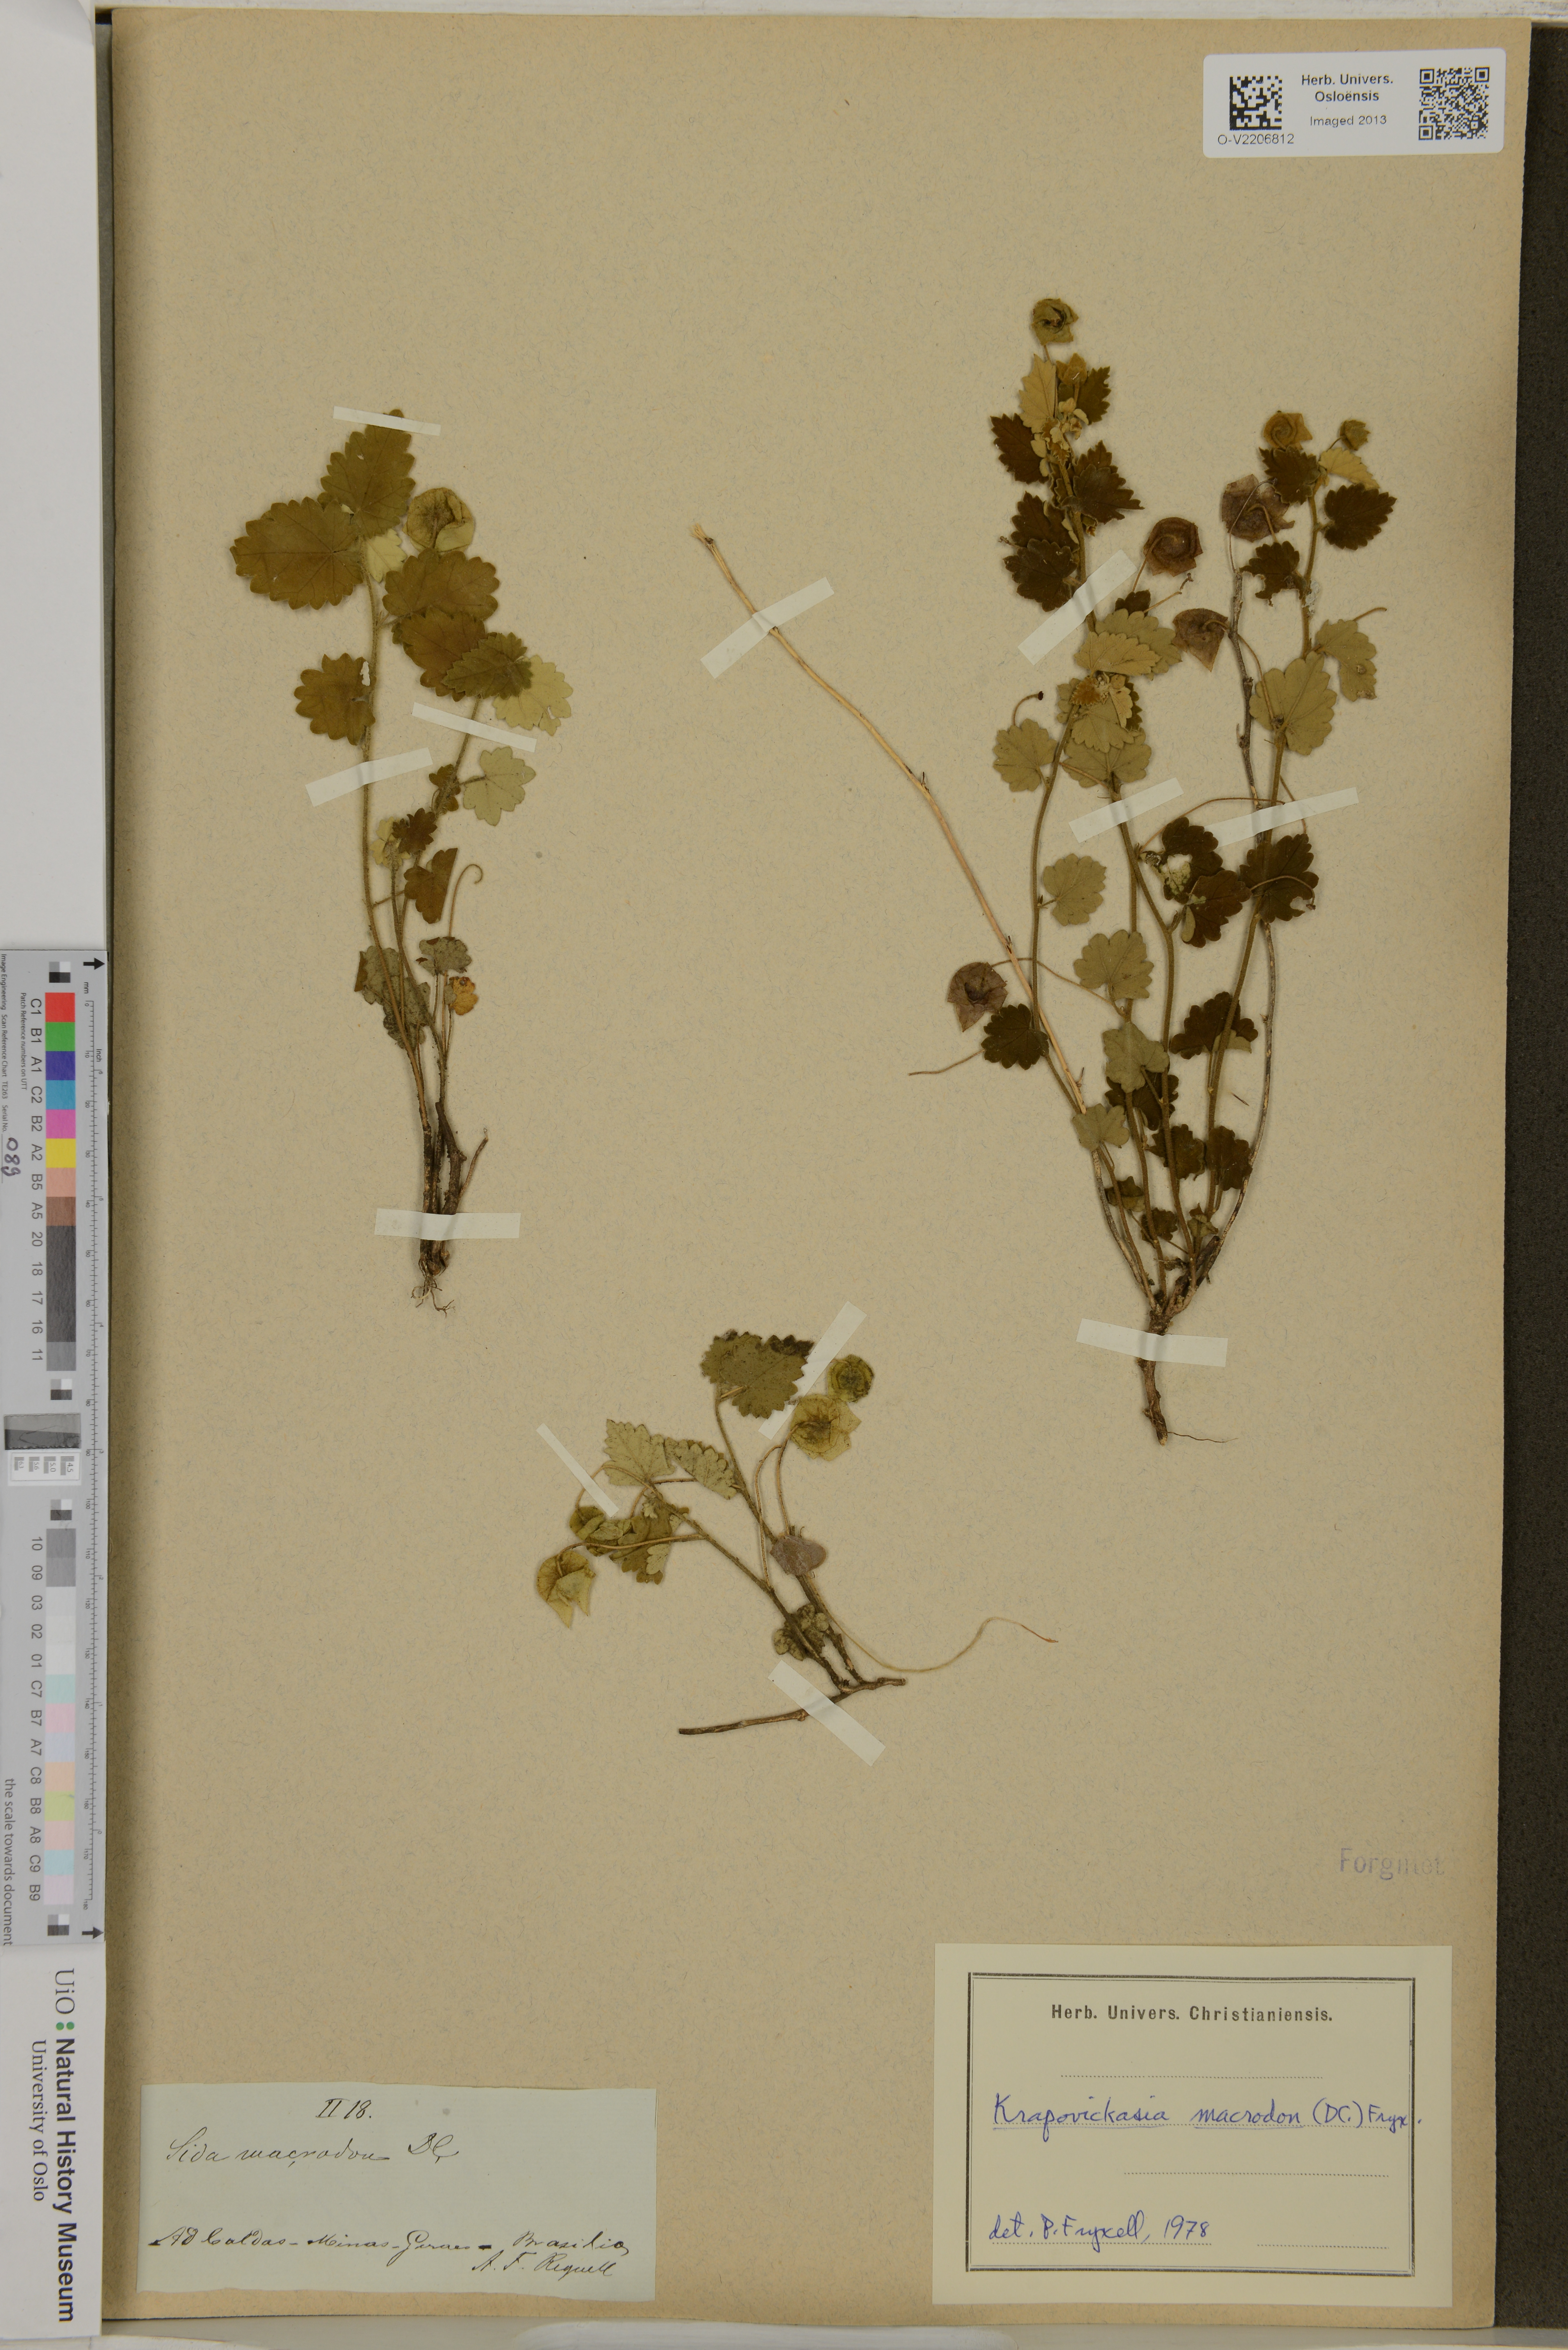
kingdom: Plantae
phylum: Tracheophyta
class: Magnoliopsida
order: Malvales
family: Malvaceae
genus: Krapovickasia
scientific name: Krapovickasia macrodon
